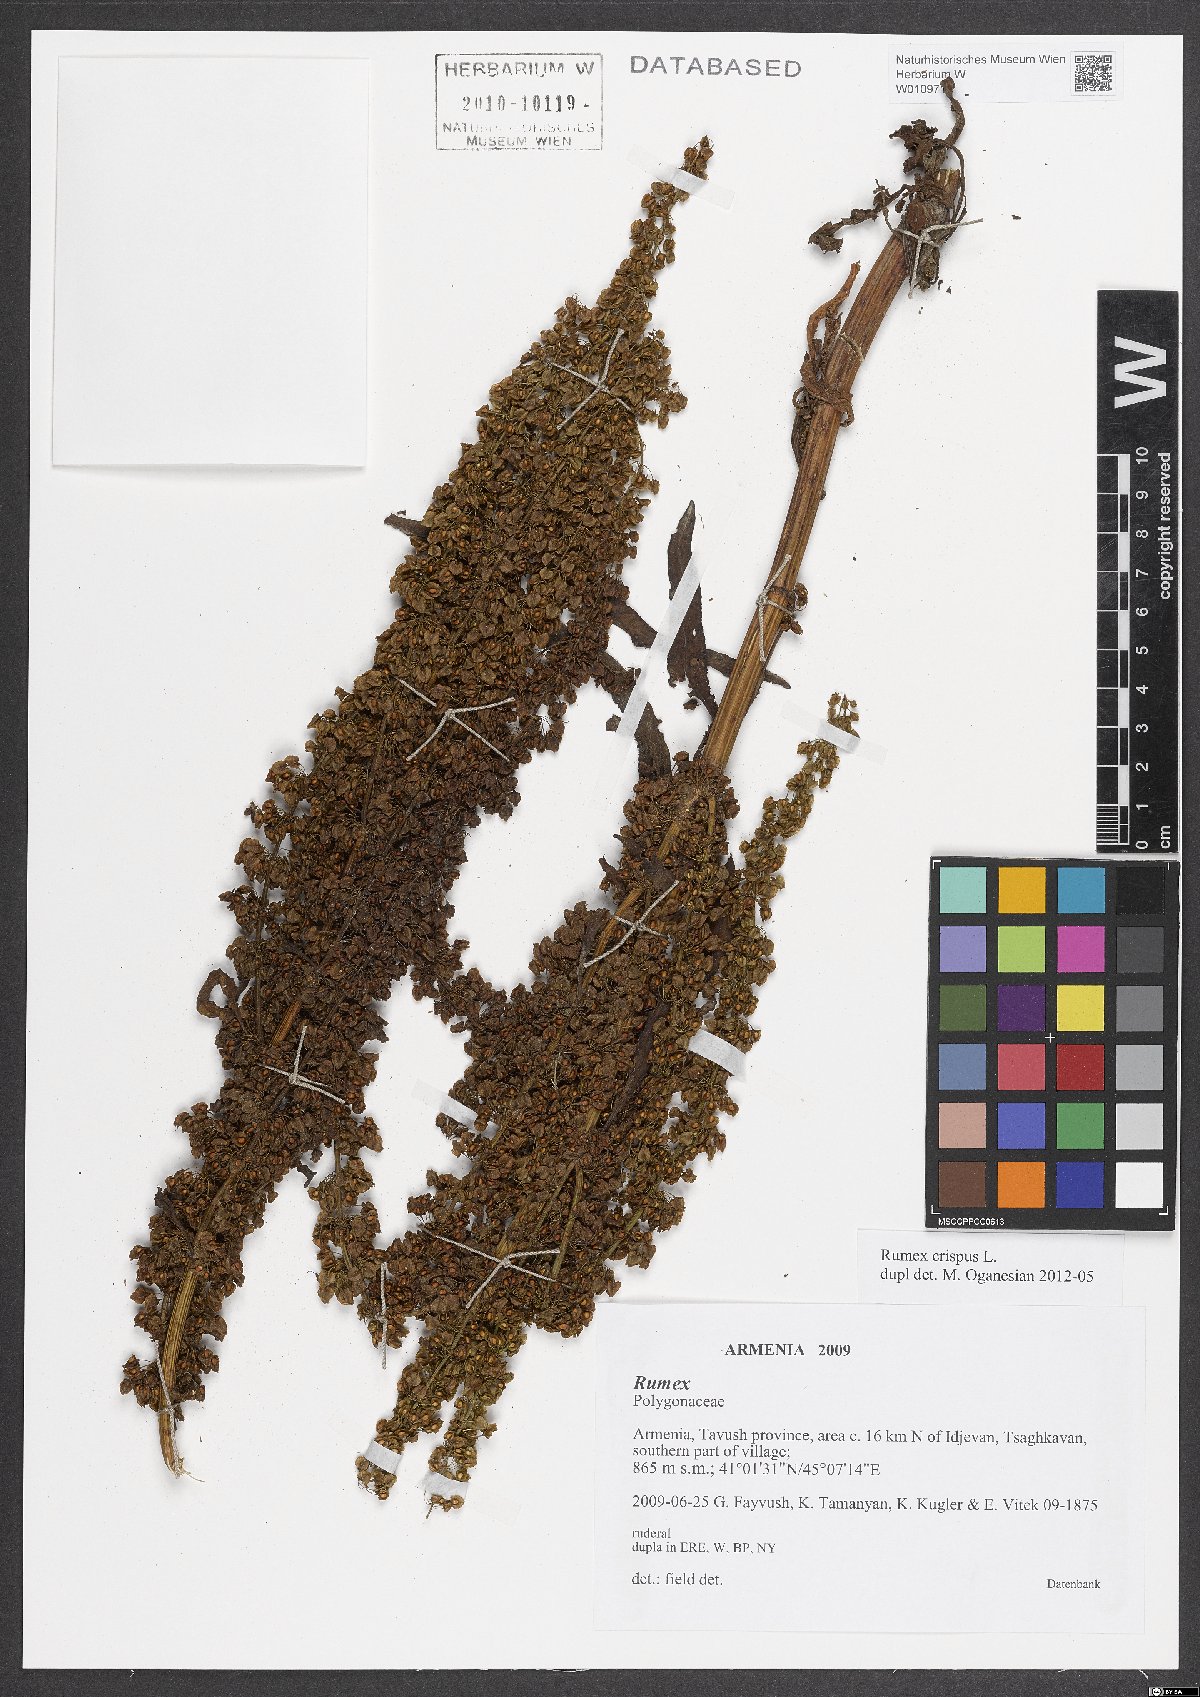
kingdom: Plantae
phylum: Tracheophyta
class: Magnoliopsida
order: Caryophyllales
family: Polygonaceae
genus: Rumex
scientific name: Rumex crispus
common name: Curled dock
